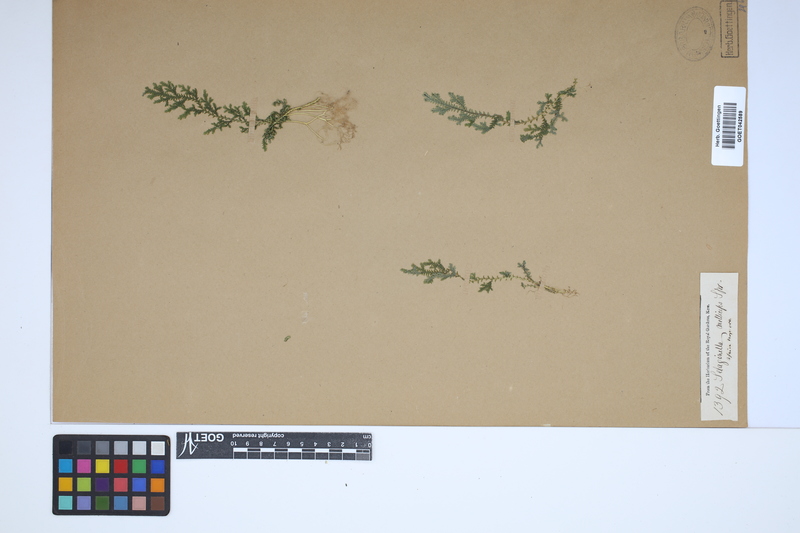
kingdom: Plantae
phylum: Tracheophyta
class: Lycopodiopsida
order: Selaginellales
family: Selaginellaceae
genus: Selaginella
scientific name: Selaginella molliceps
